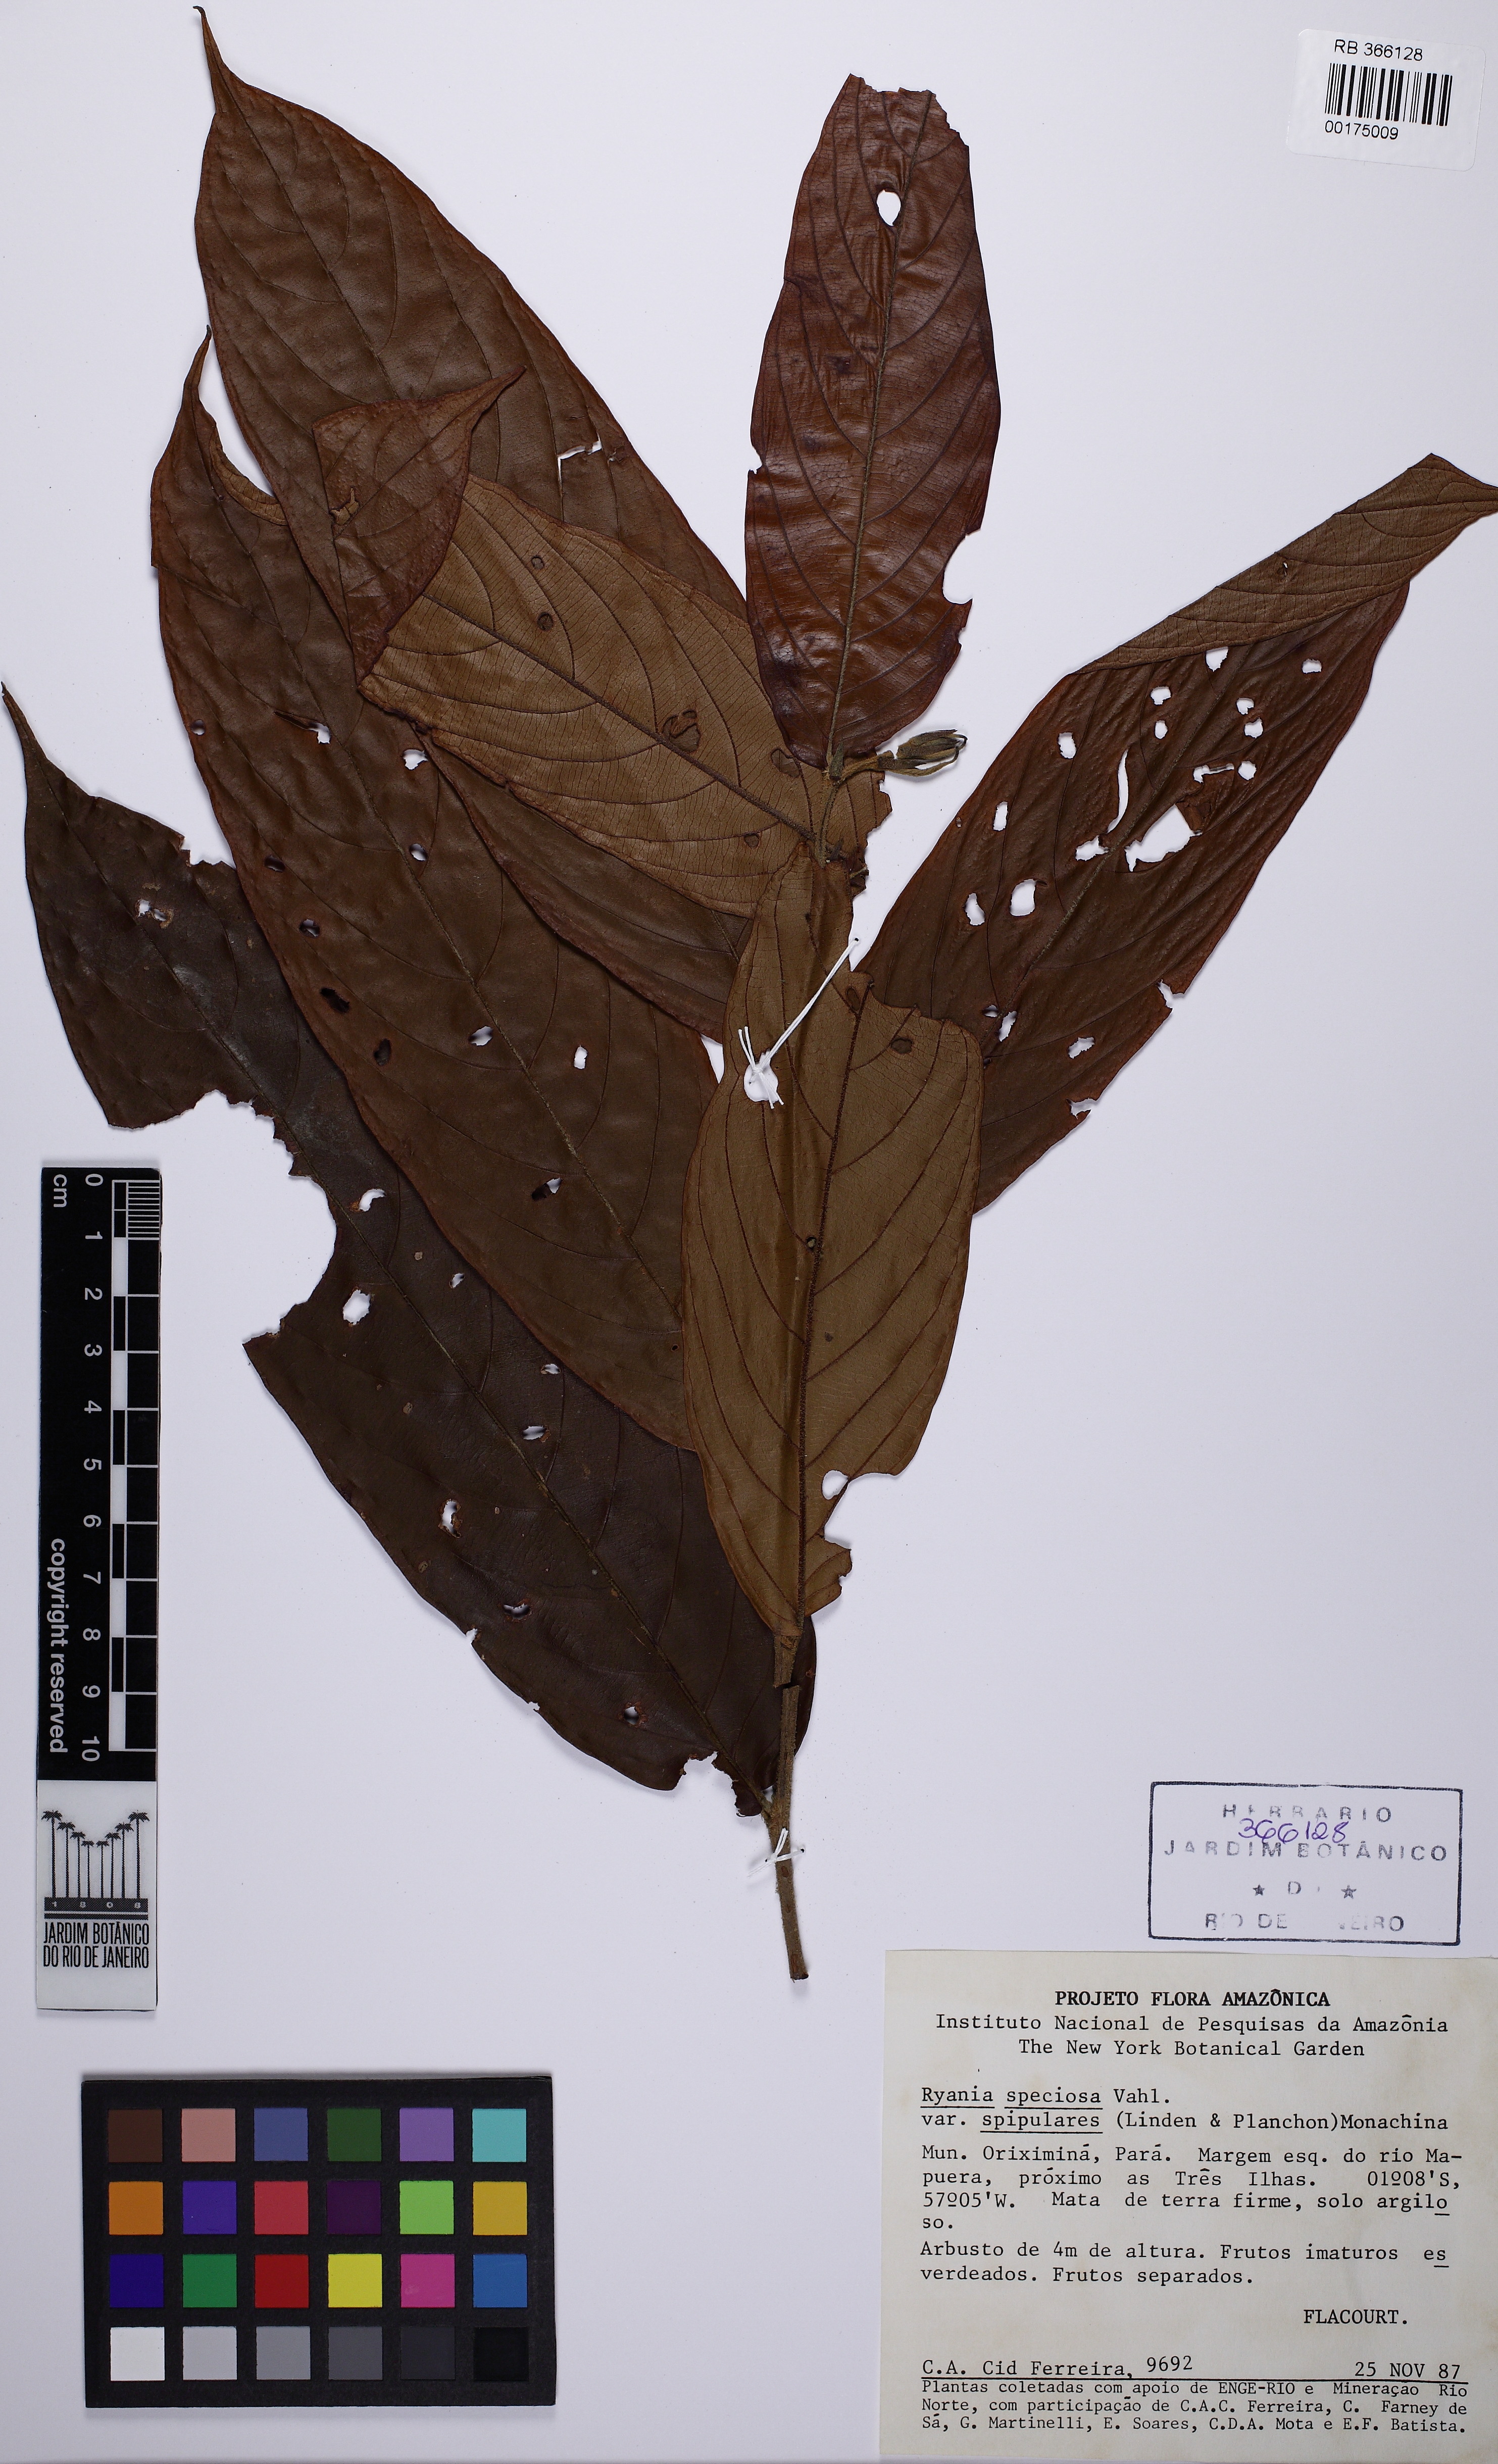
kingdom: Plantae
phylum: Tracheophyta
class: Magnoliopsida
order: Malpighiales
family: Salicaceae
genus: Ryania
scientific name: Ryania speciosa
